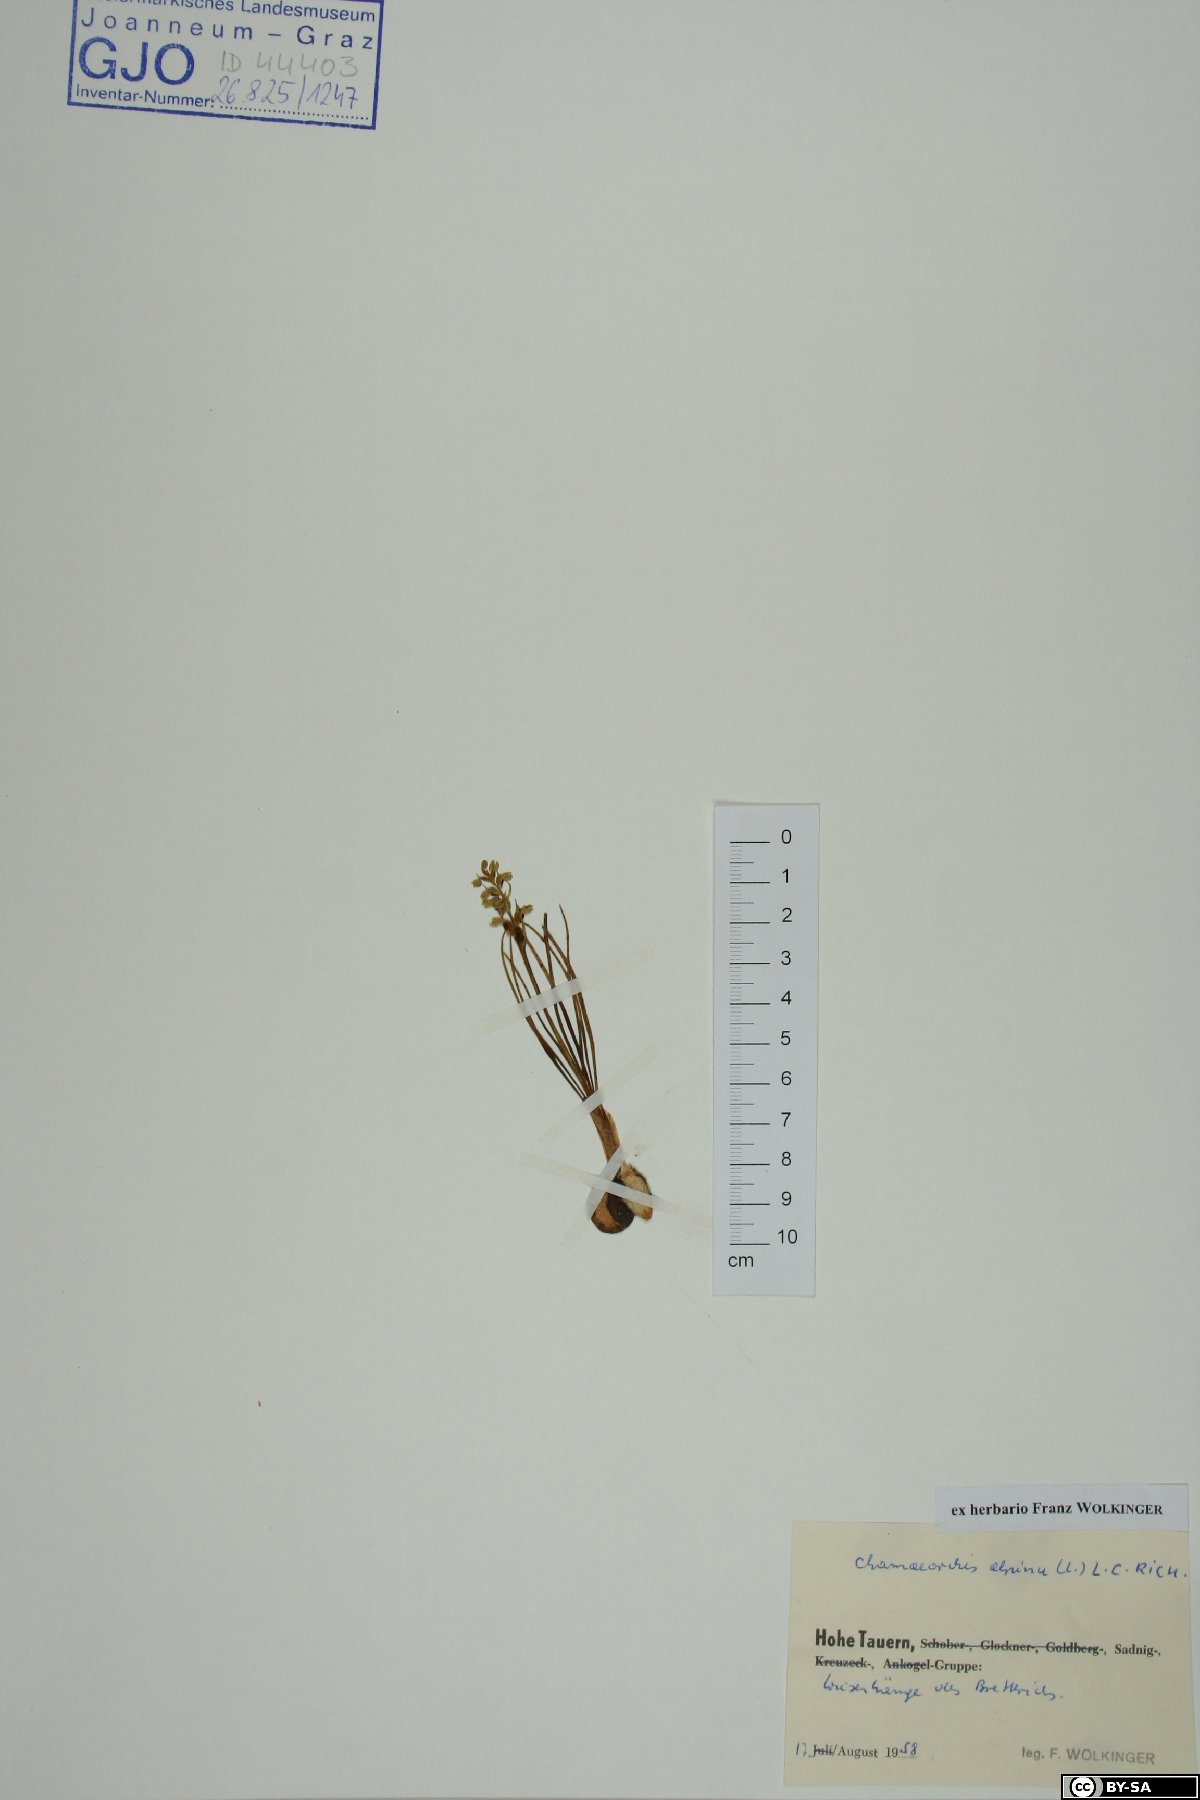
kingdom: Plantae
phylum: Tracheophyta
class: Liliopsida
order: Asparagales
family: Orchidaceae
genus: Chamorchis
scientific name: Chamorchis alpina
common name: Alpine chamorchis
